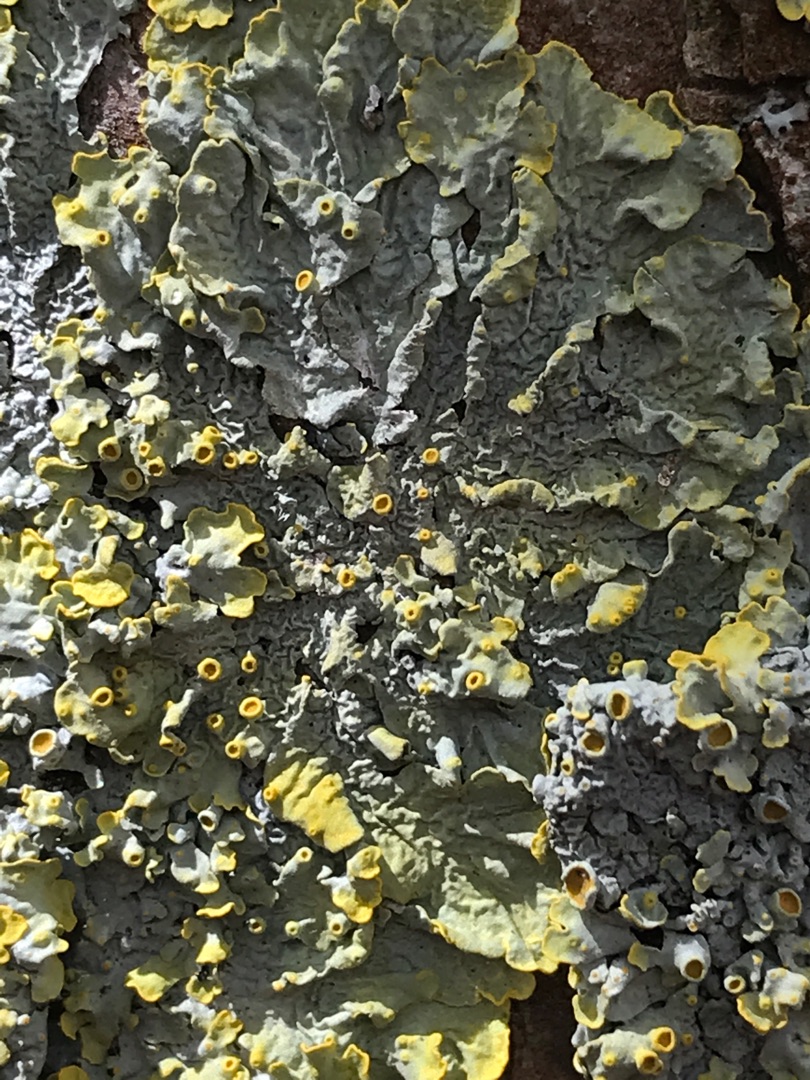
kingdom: Fungi
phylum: Ascomycota
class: Lecanoromycetes
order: Teloschistales
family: Teloschistaceae
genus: Xanthoria
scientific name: Xanthoria parietina
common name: Almindelig væggelav
